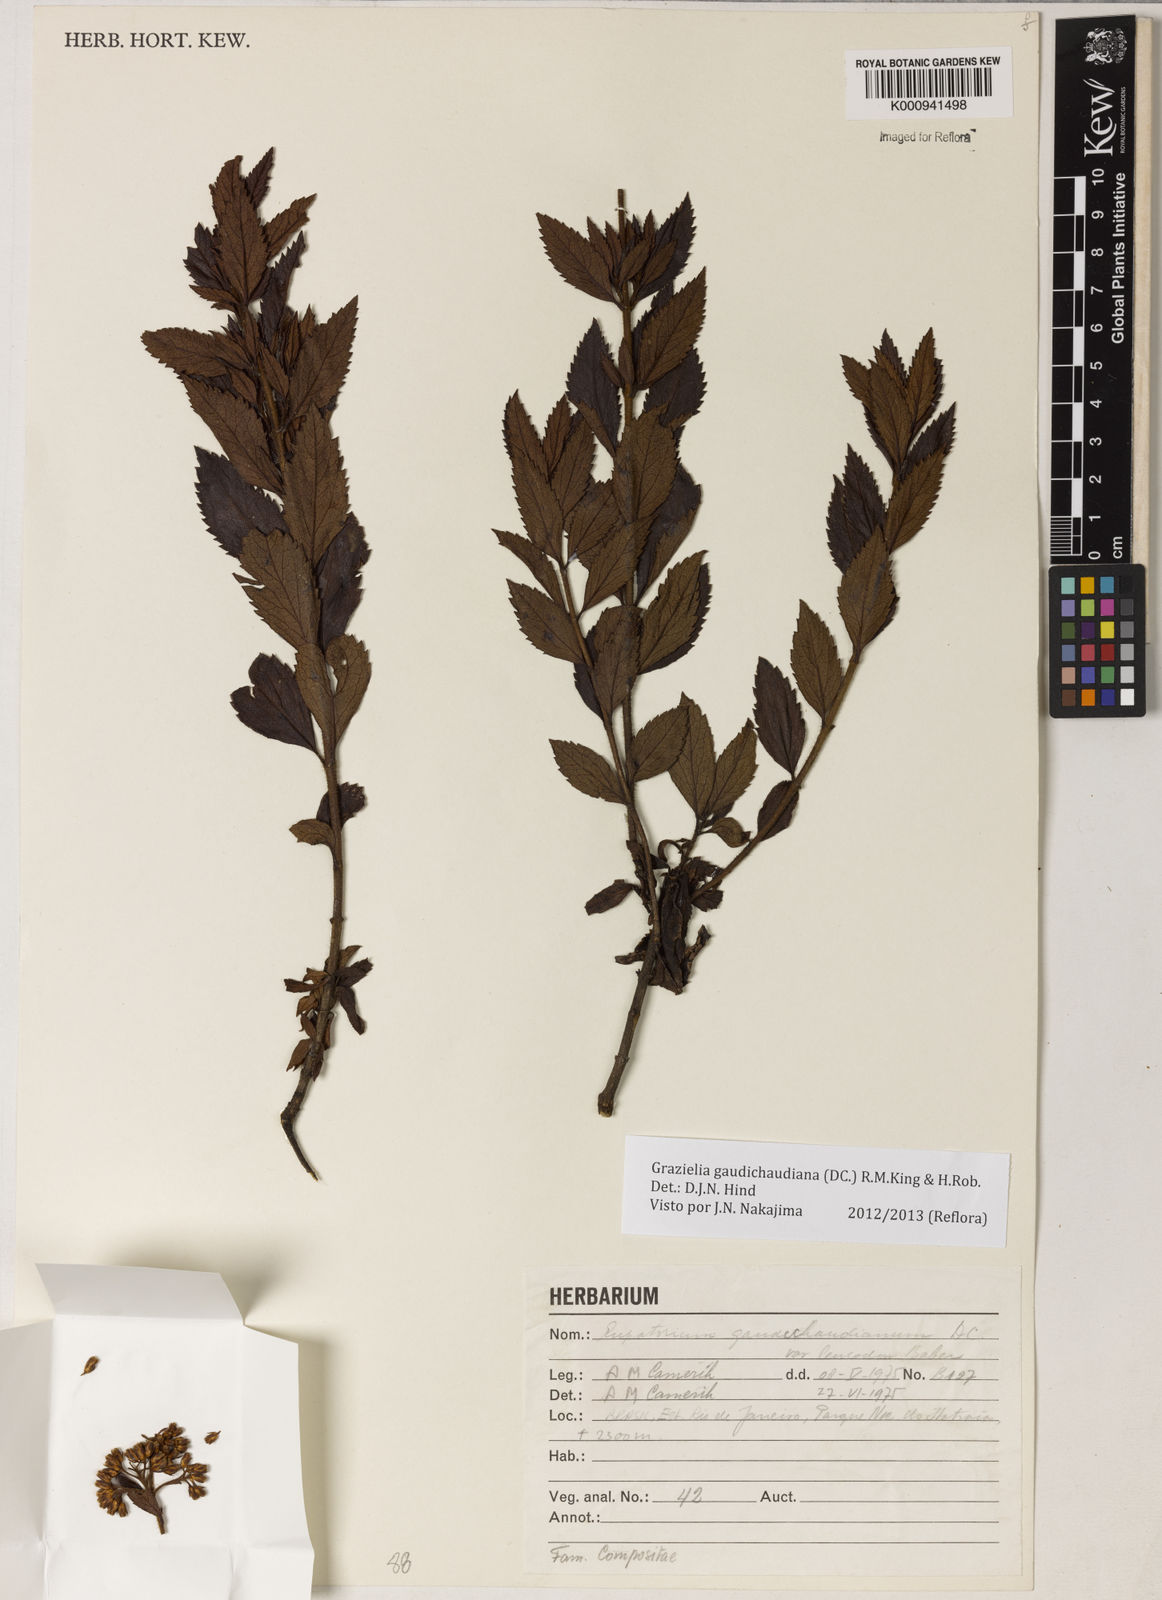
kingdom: Plantae
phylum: Tracheophyta
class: Magnoliopsida
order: Asterales
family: Asteraceae
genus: Grazielia
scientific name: Grazielia
